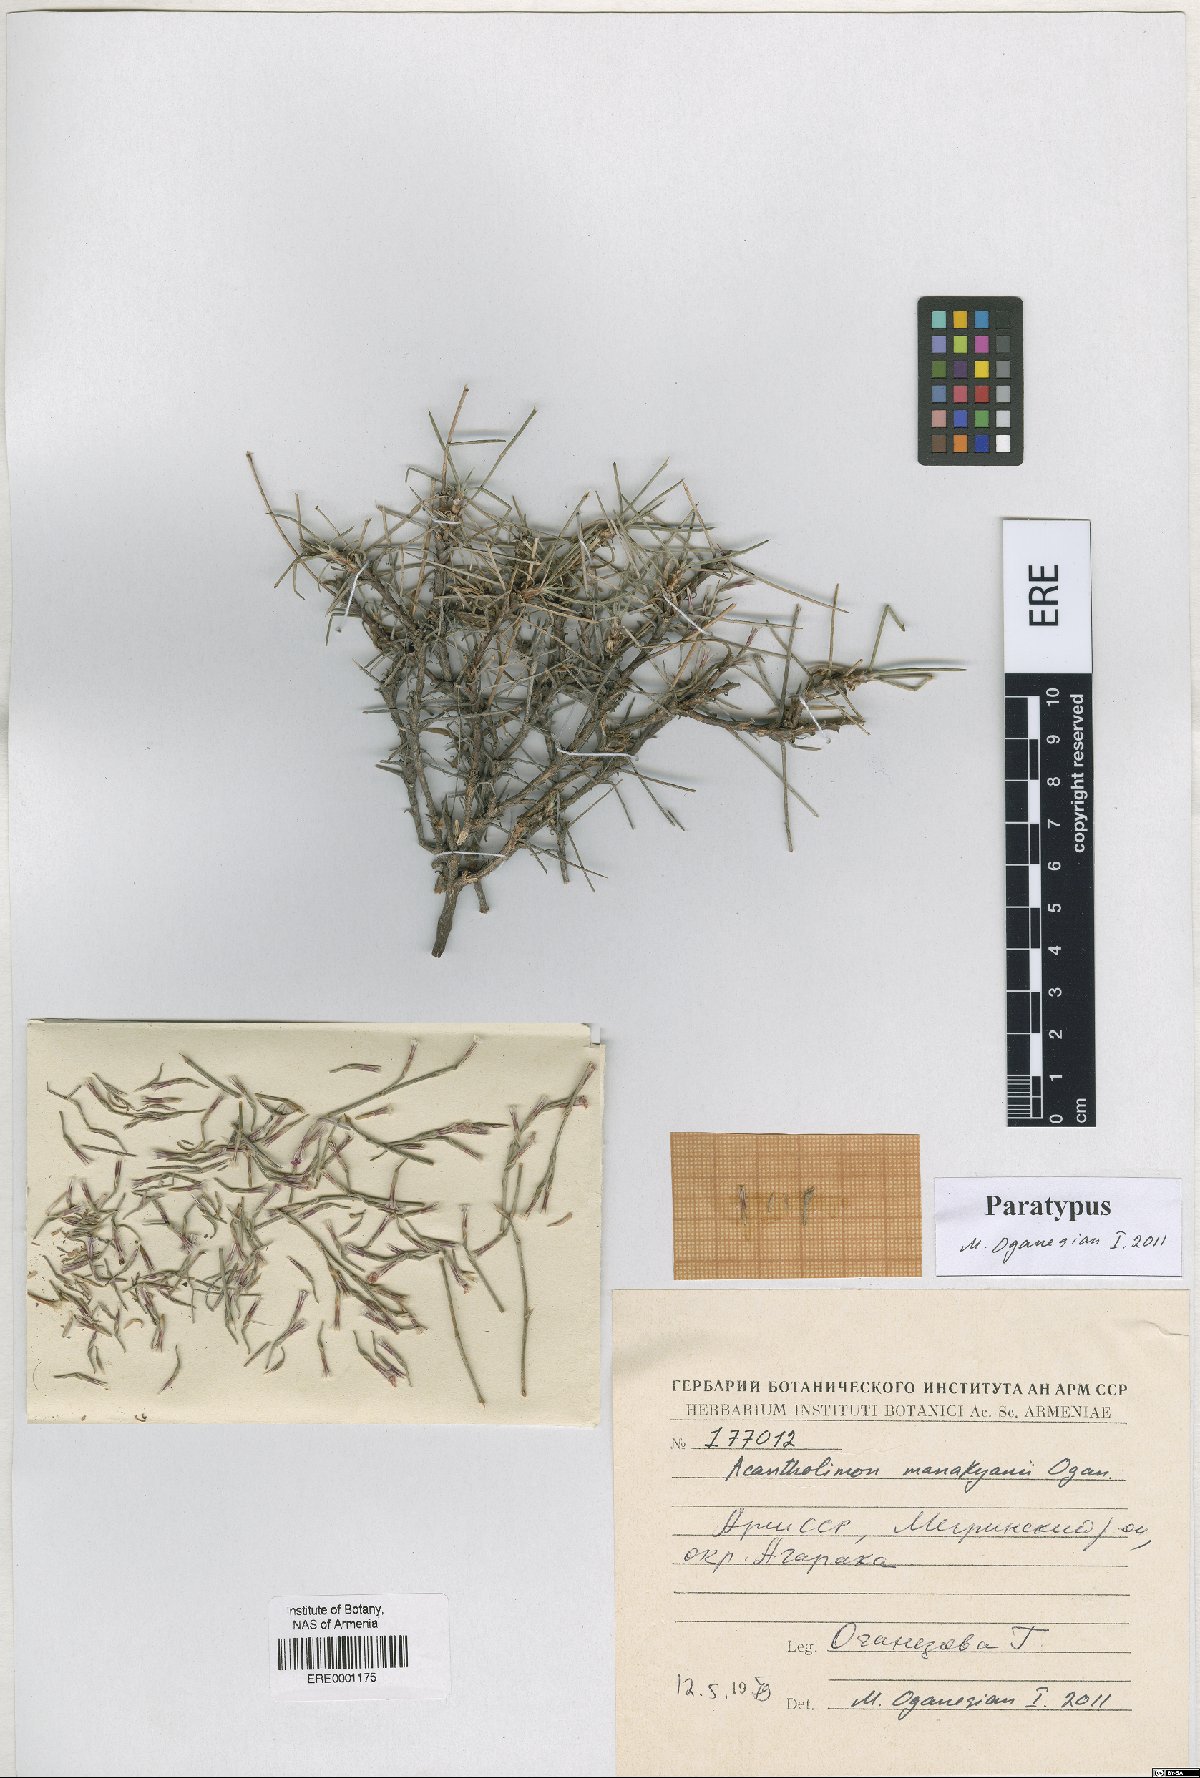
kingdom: Plantae
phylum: Tracheophyta
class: Magnoliopsida
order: Caryophyllales
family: Plumbaginaceae
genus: Acantholimon
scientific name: Acantholimon manakyanii
